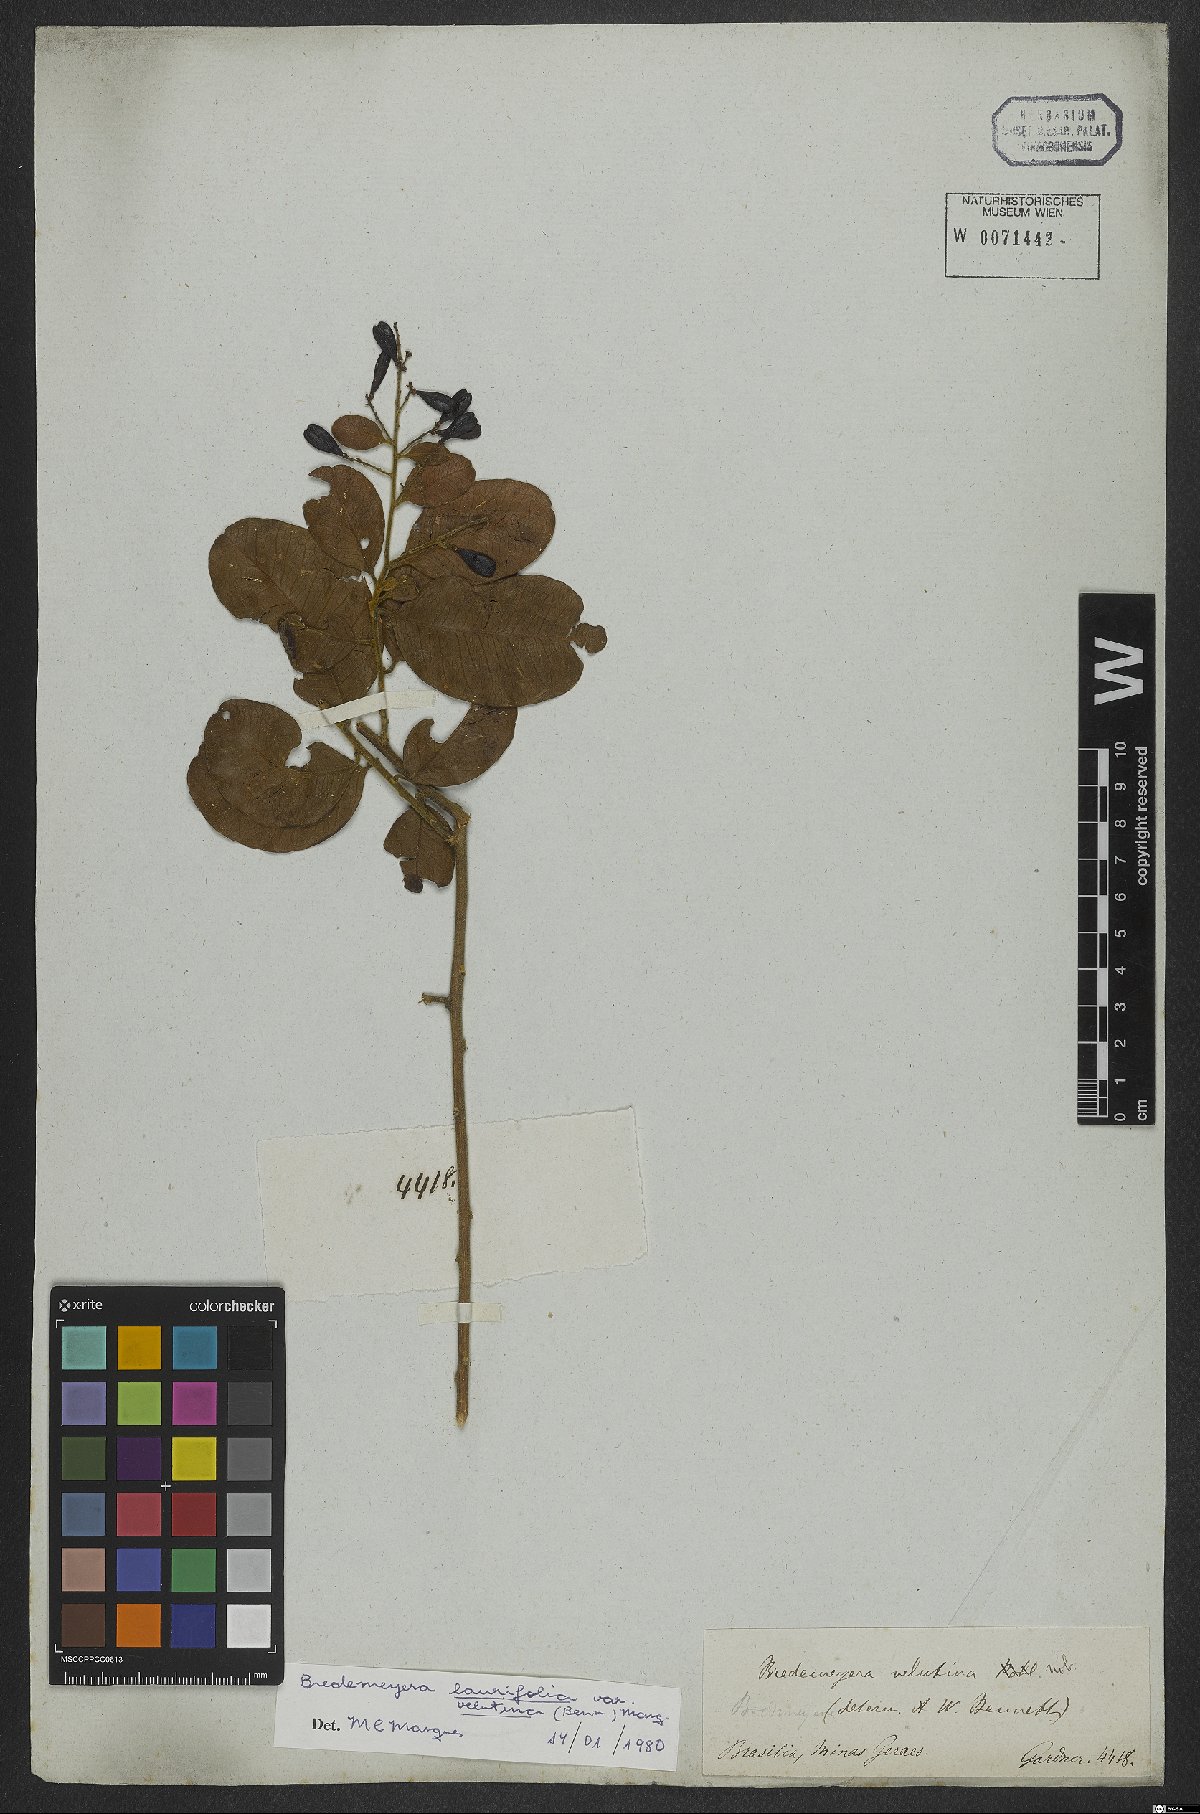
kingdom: Plantae
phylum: Tracheophyta
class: Magnoliopsida
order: Fabales
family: Polygalaceae
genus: Bredemeyera
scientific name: Bredemeyera laurifolia
